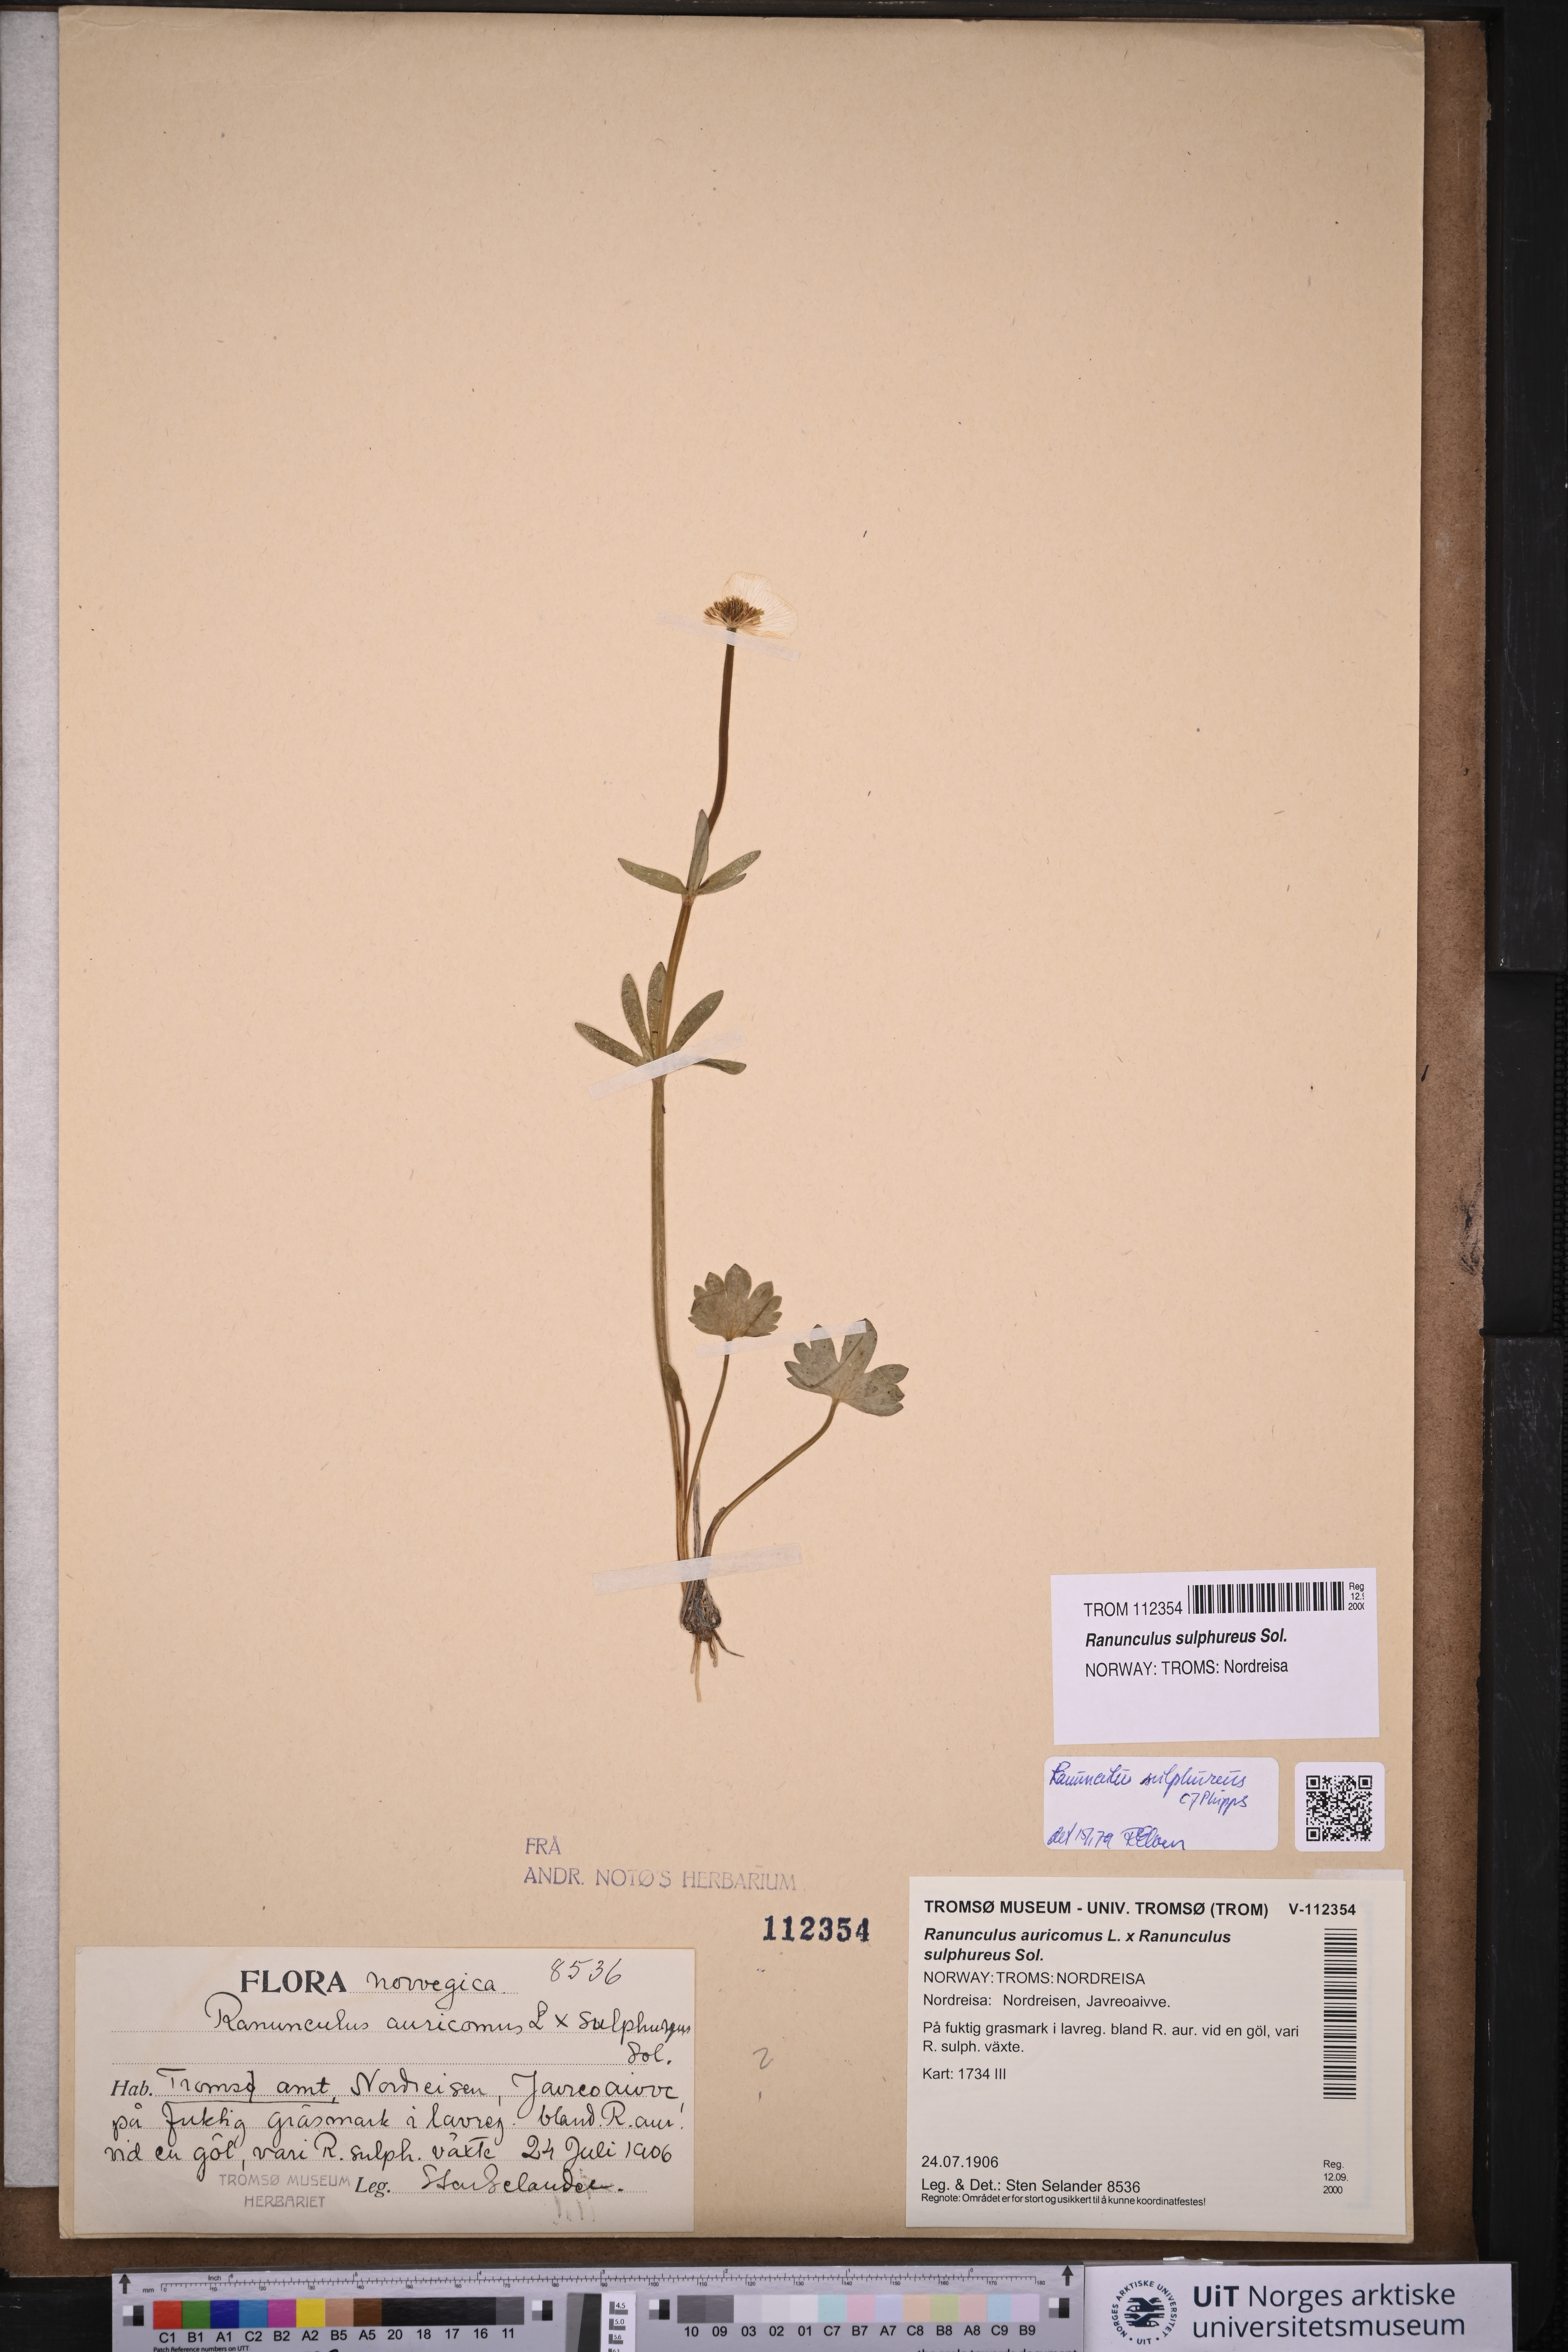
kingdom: Plantae
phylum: Tracheophyta
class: Magnoliopsida
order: Ranunculales
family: Ranunculaceae
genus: Ranunculus
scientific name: Ranunculus sulphureus
